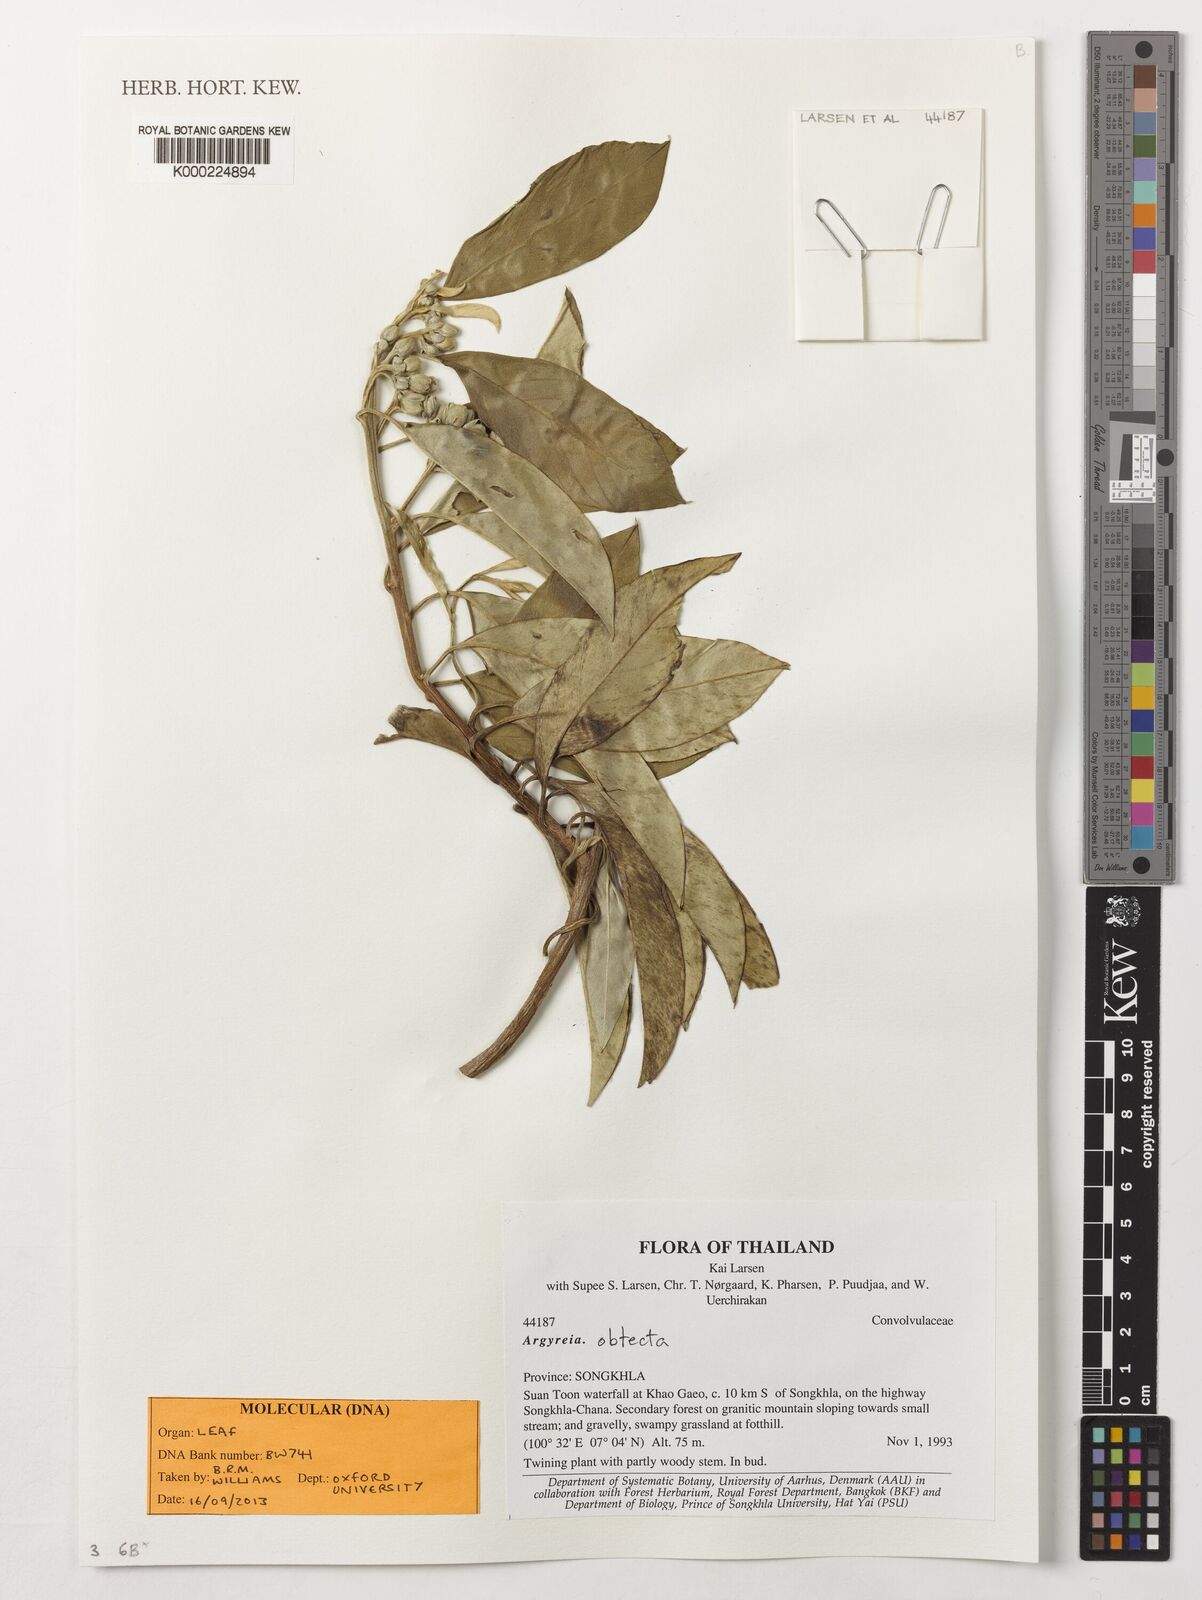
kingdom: Plantae
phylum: Tracheophyta
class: Magnoliopsida
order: Solanales
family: Convolvulaceae
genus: Argyreia
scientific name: Argyreia mollis
